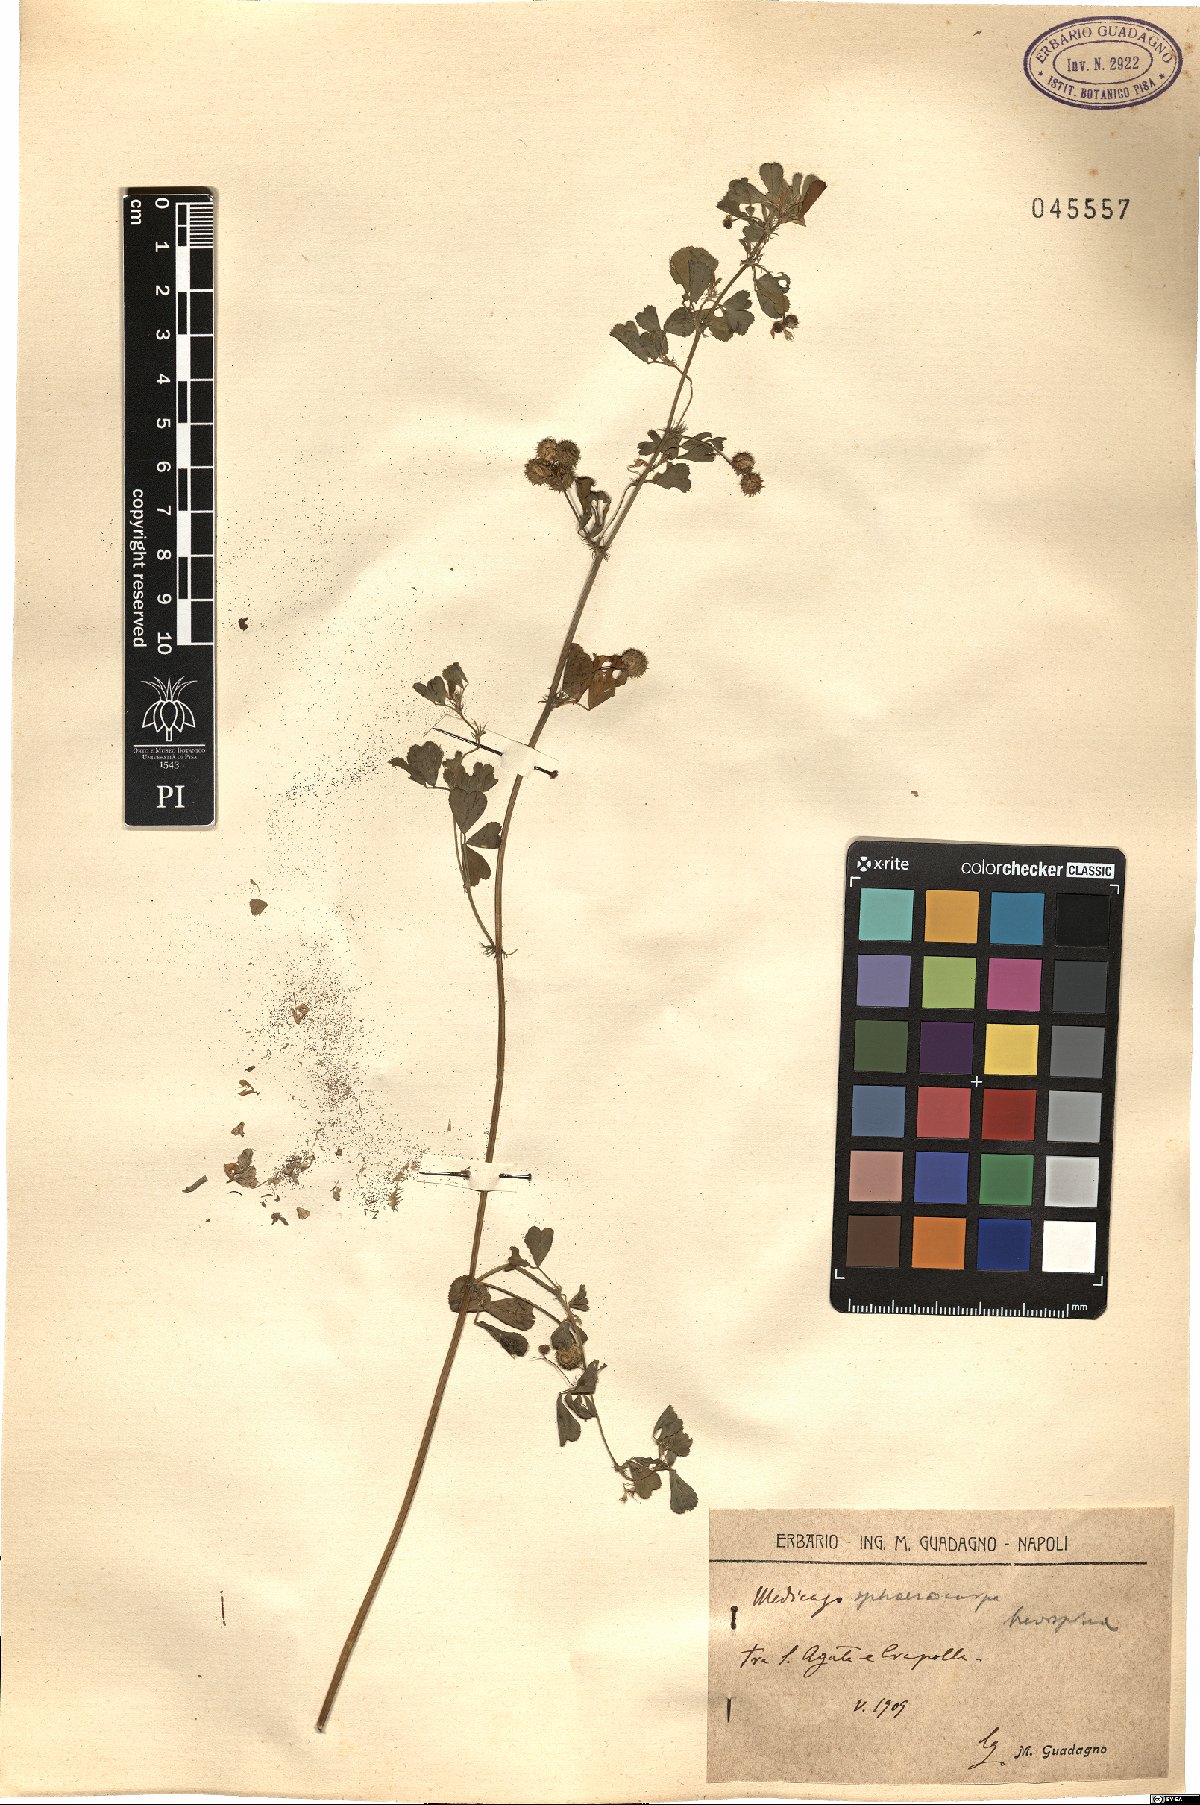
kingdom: Plantae
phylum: Tracheophyta
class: Magnoliopsida
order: Fabales
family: Fabaceae
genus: Medicago
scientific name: Medicago sphaerocarpos
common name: Sphere medic
